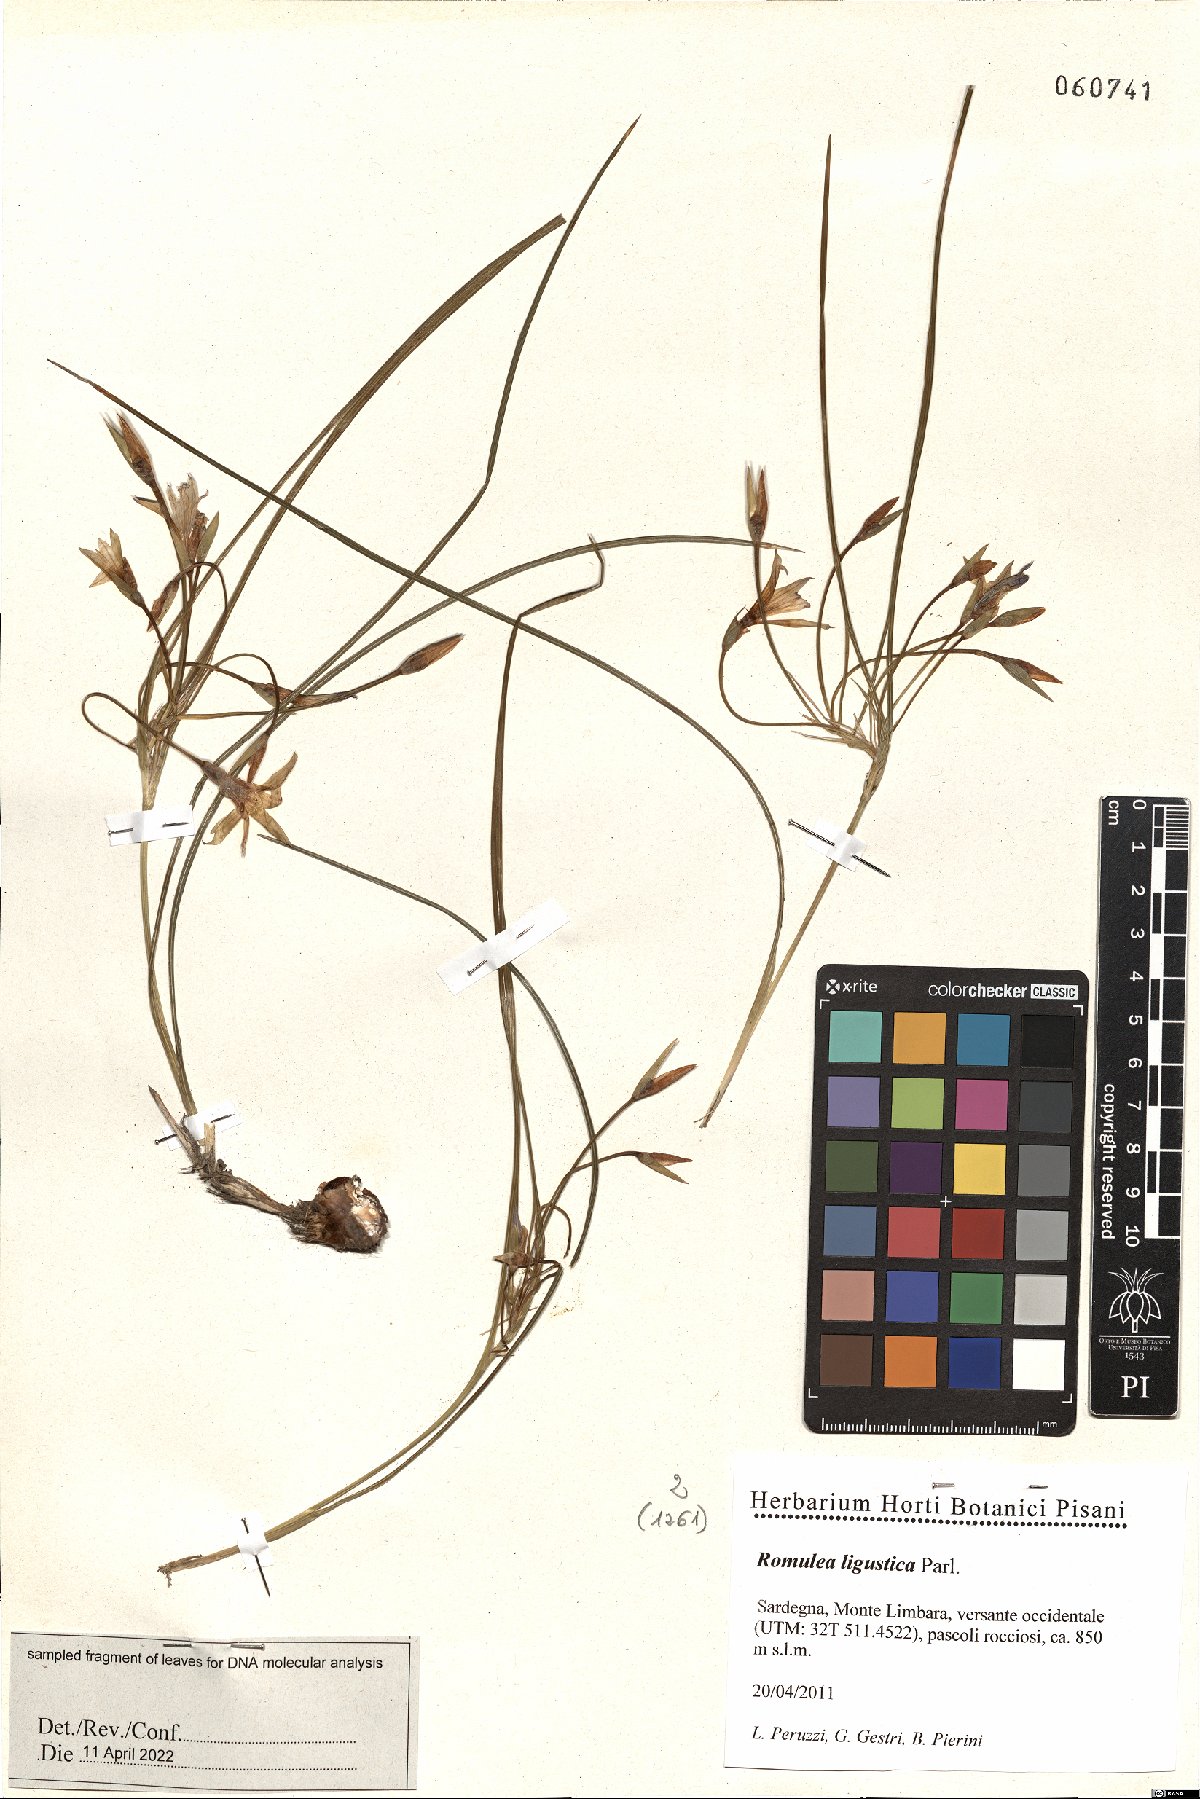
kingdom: Plantae
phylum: Tracheophyta
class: Liliopsida
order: Asparagales
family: Iridaceae
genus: Romulea
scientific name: Romulea ligustica
